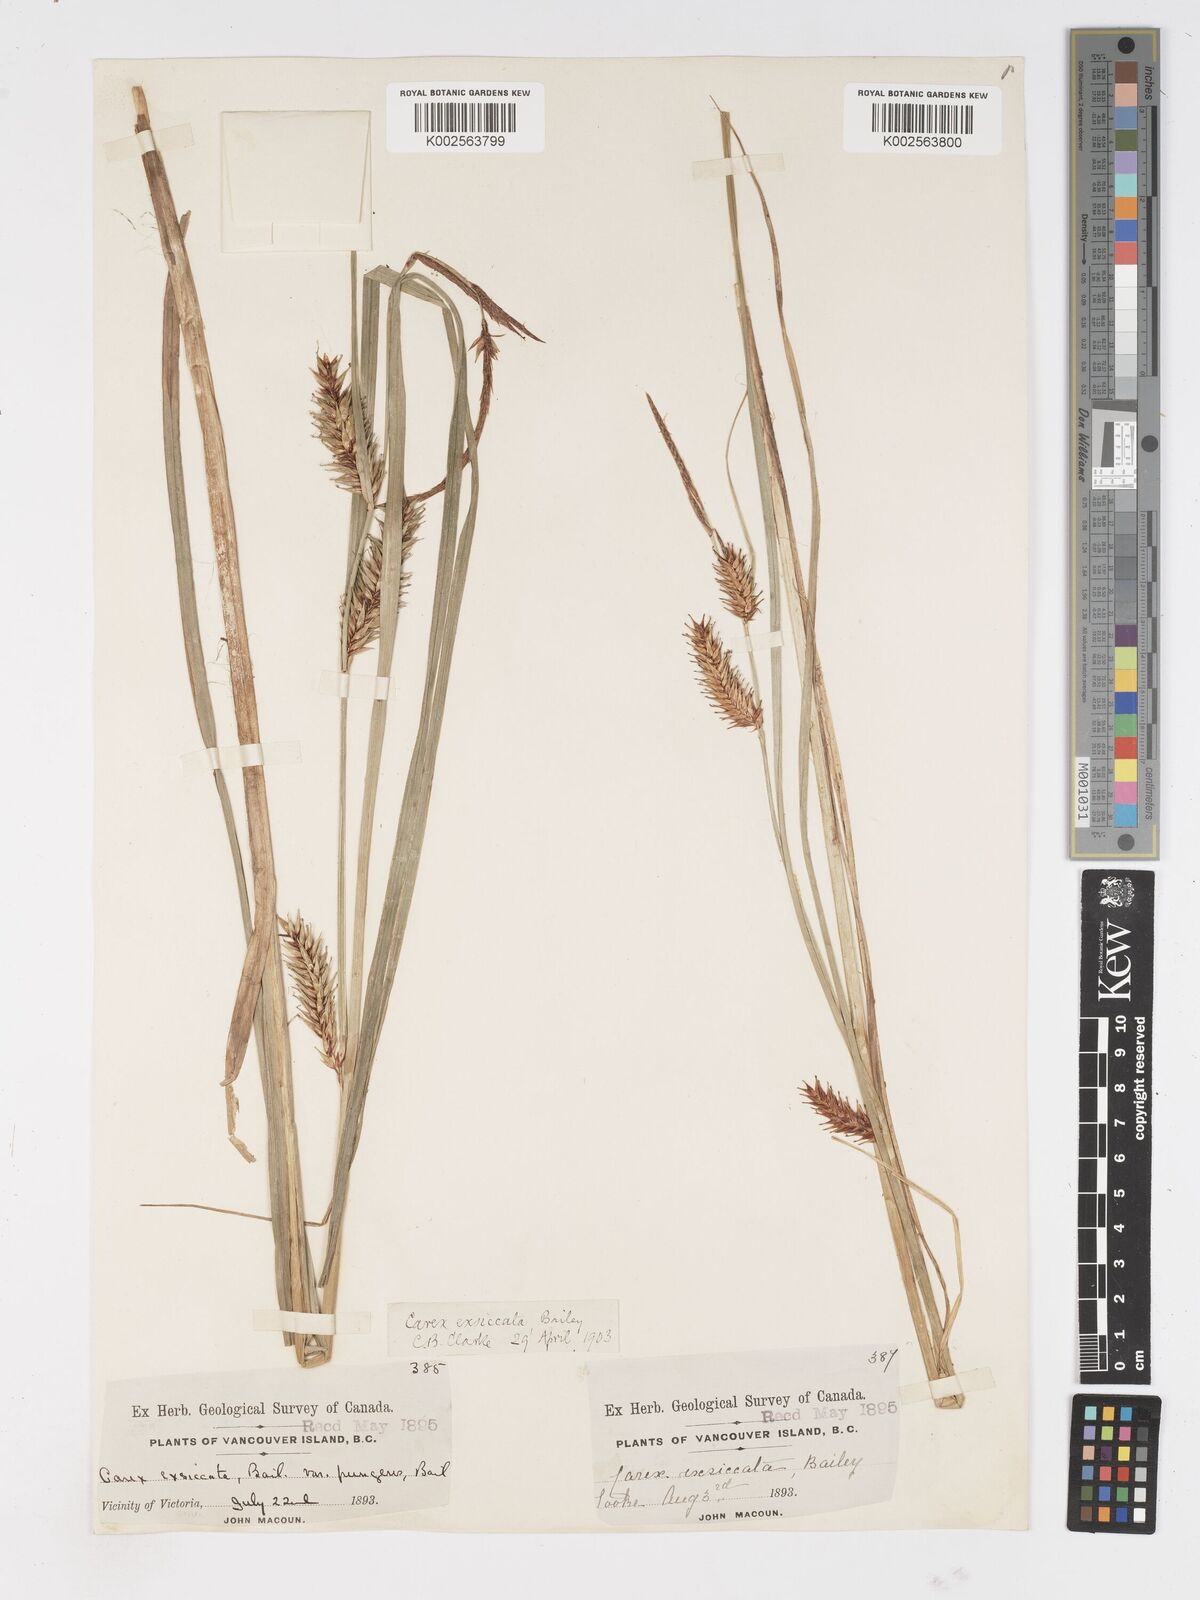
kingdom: Plantae
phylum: Tracheophyta
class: Liliopsida
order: Poales
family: Cyperaceae
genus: Carex
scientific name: Carex exsiccata
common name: Beaked sedge
